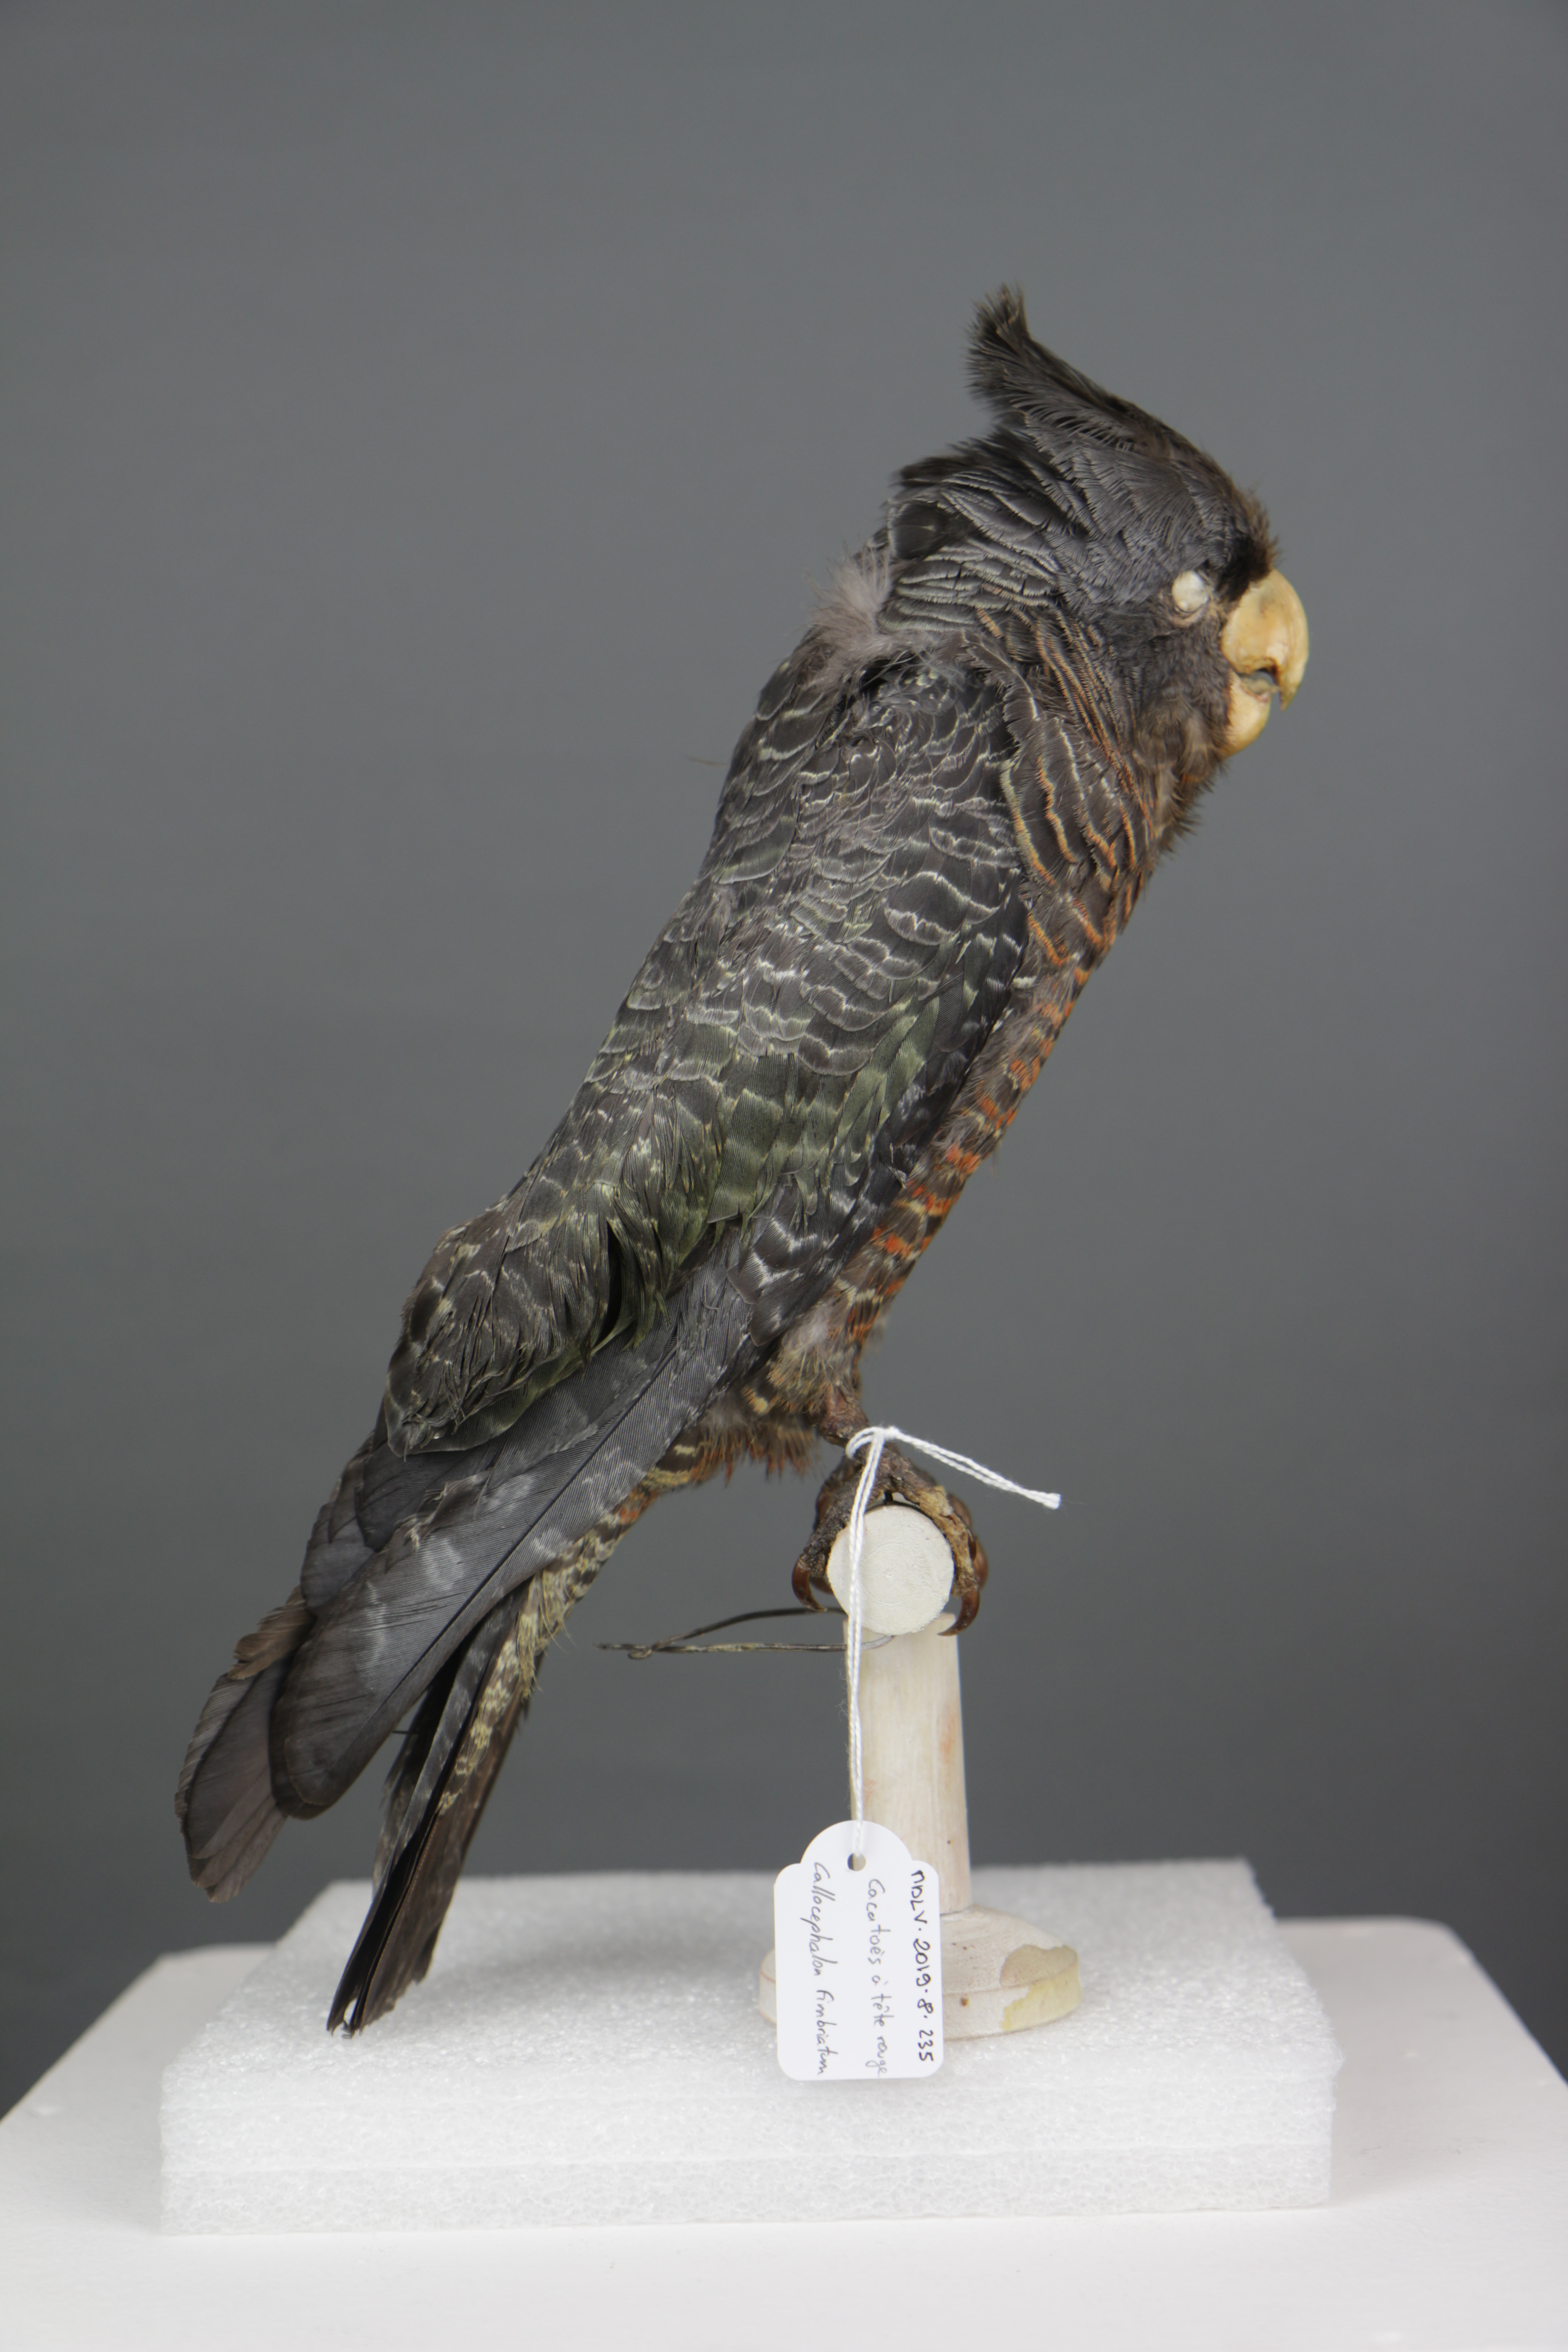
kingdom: Animalia
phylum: Chordata
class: Aves
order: Psittaciformes
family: Psittacidae
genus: Callocephalon
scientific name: Callocephalon fimbriatum
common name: Gang-gang cockatoo
